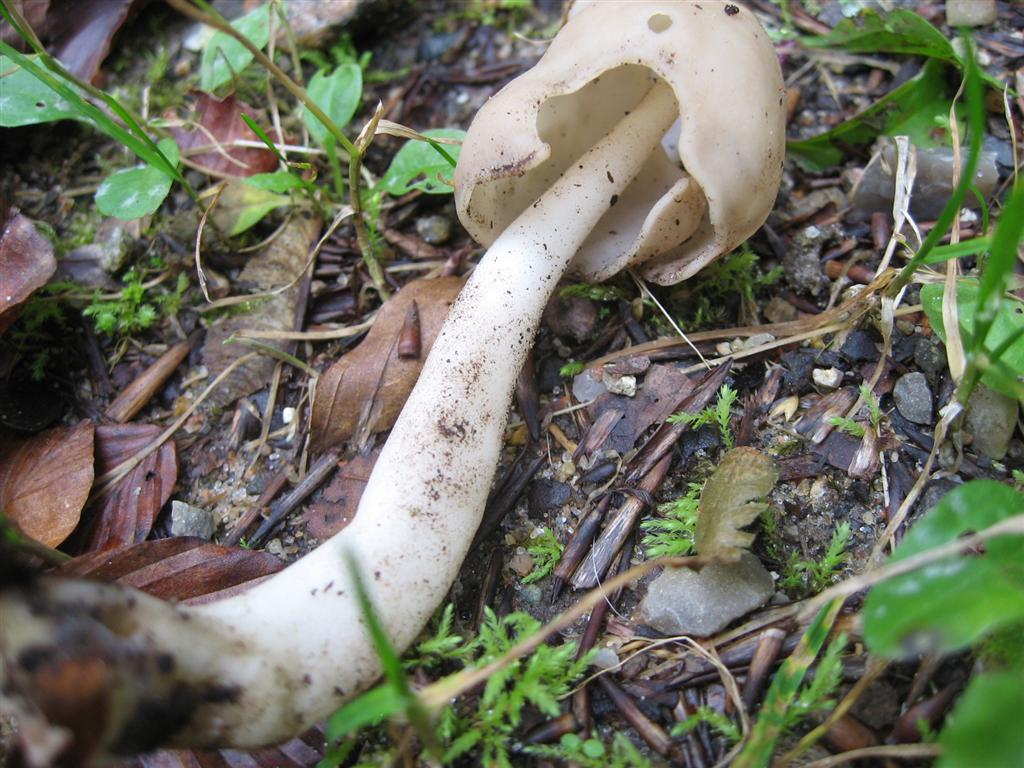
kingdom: Fungi
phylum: Ascomycota
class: Pezizomycetes
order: Pezizales
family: Helvellaceae
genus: Helvella
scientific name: Helvella elastica
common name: elastik-foldhat
